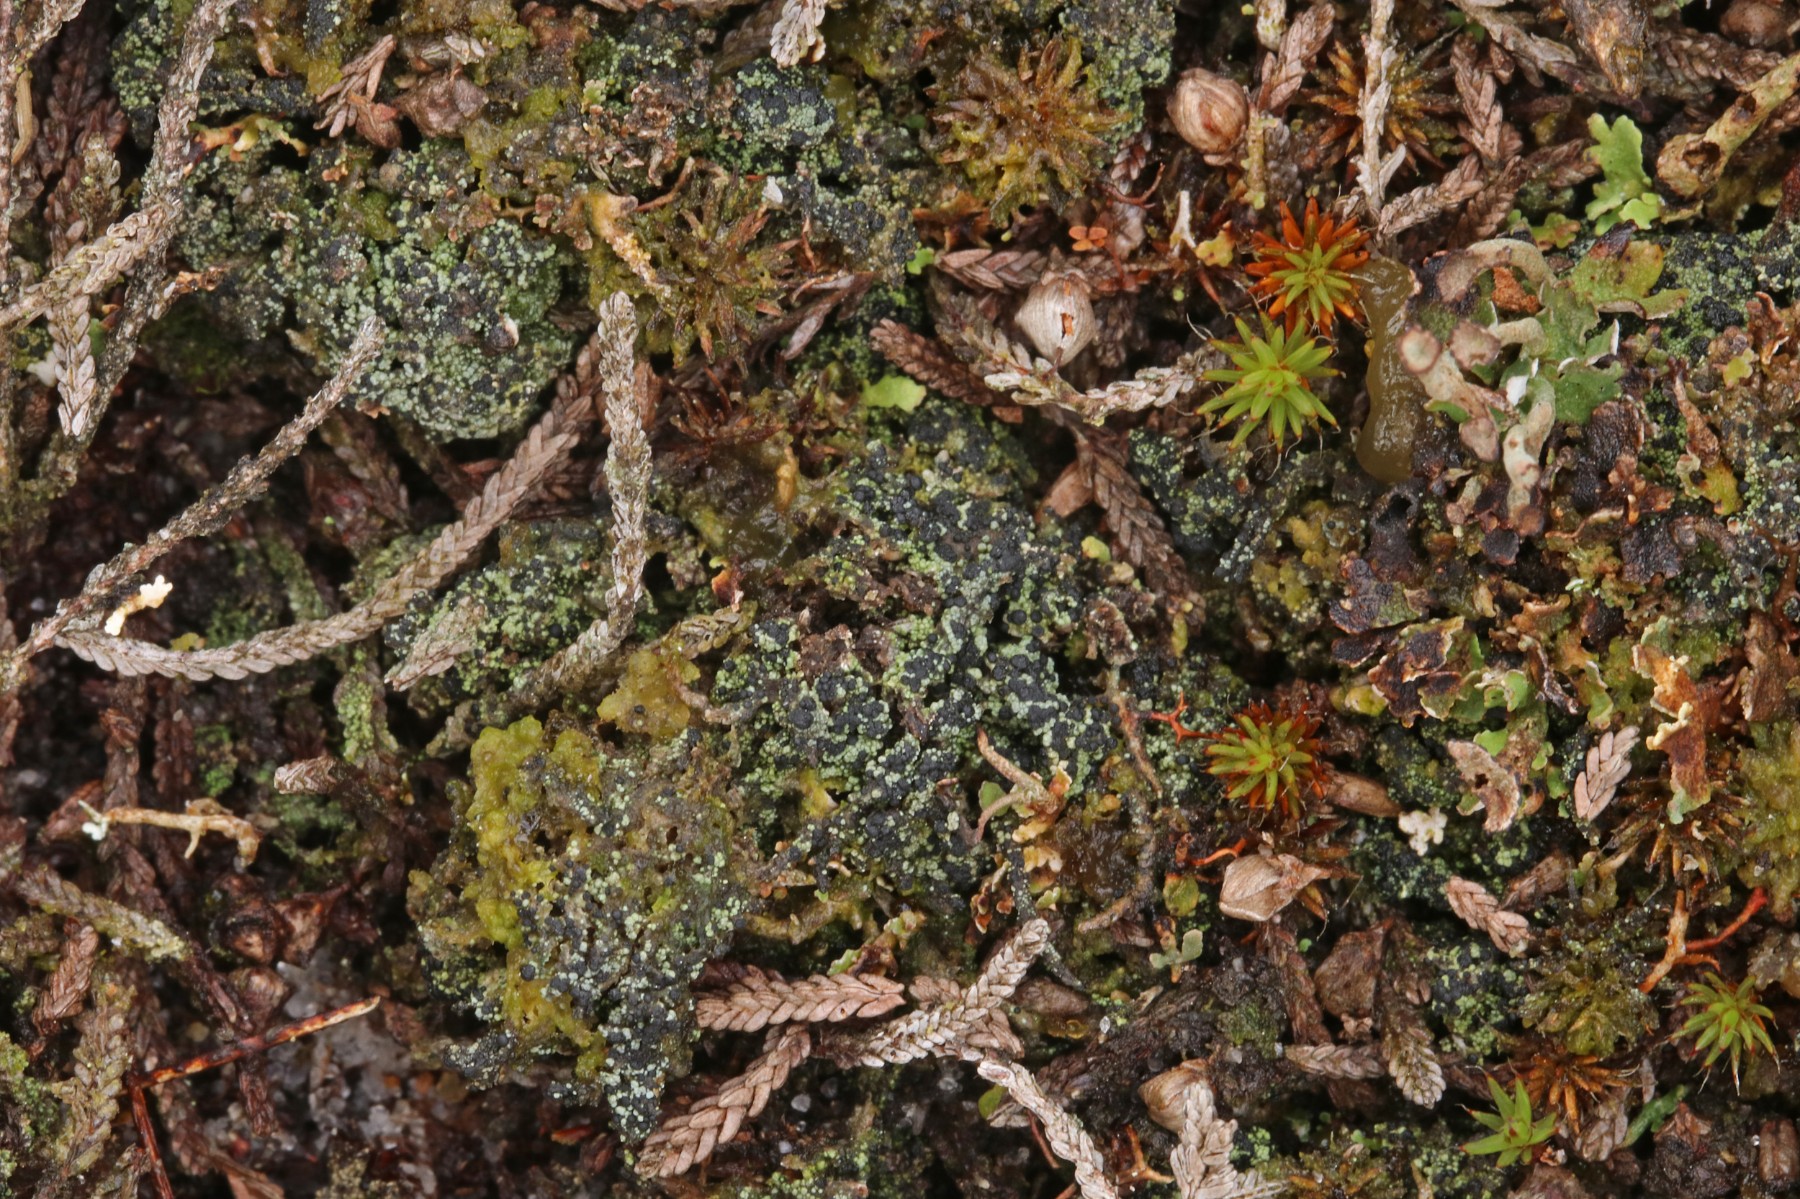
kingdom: Fungi
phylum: Ascomycota
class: Lecanoromycetes
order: Lecanorales
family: Byssolomataceae
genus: Micarea
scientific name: Micarea lignaria
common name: tørve-knaplav
